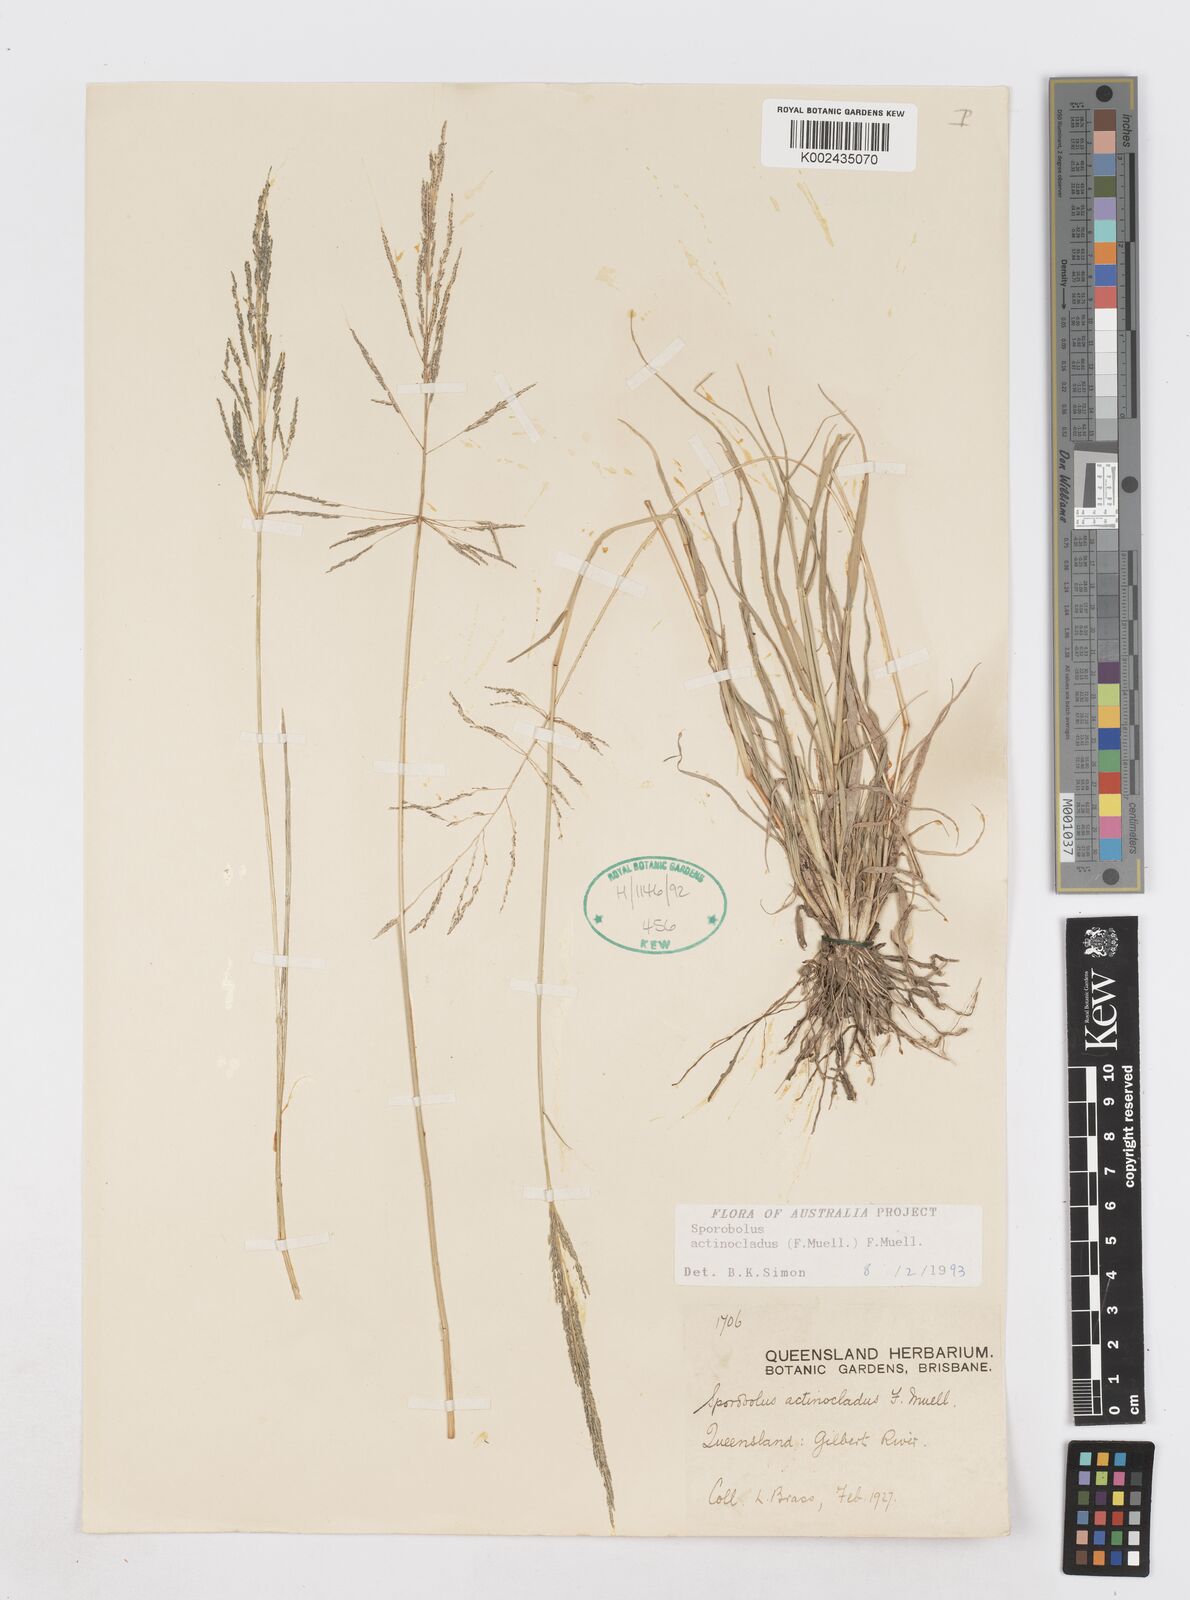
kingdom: Plantae
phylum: Tracheophyta
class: Liliopsida
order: Poales
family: Poaceae
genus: Sporobolus
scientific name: Sporobolus actinocladus
